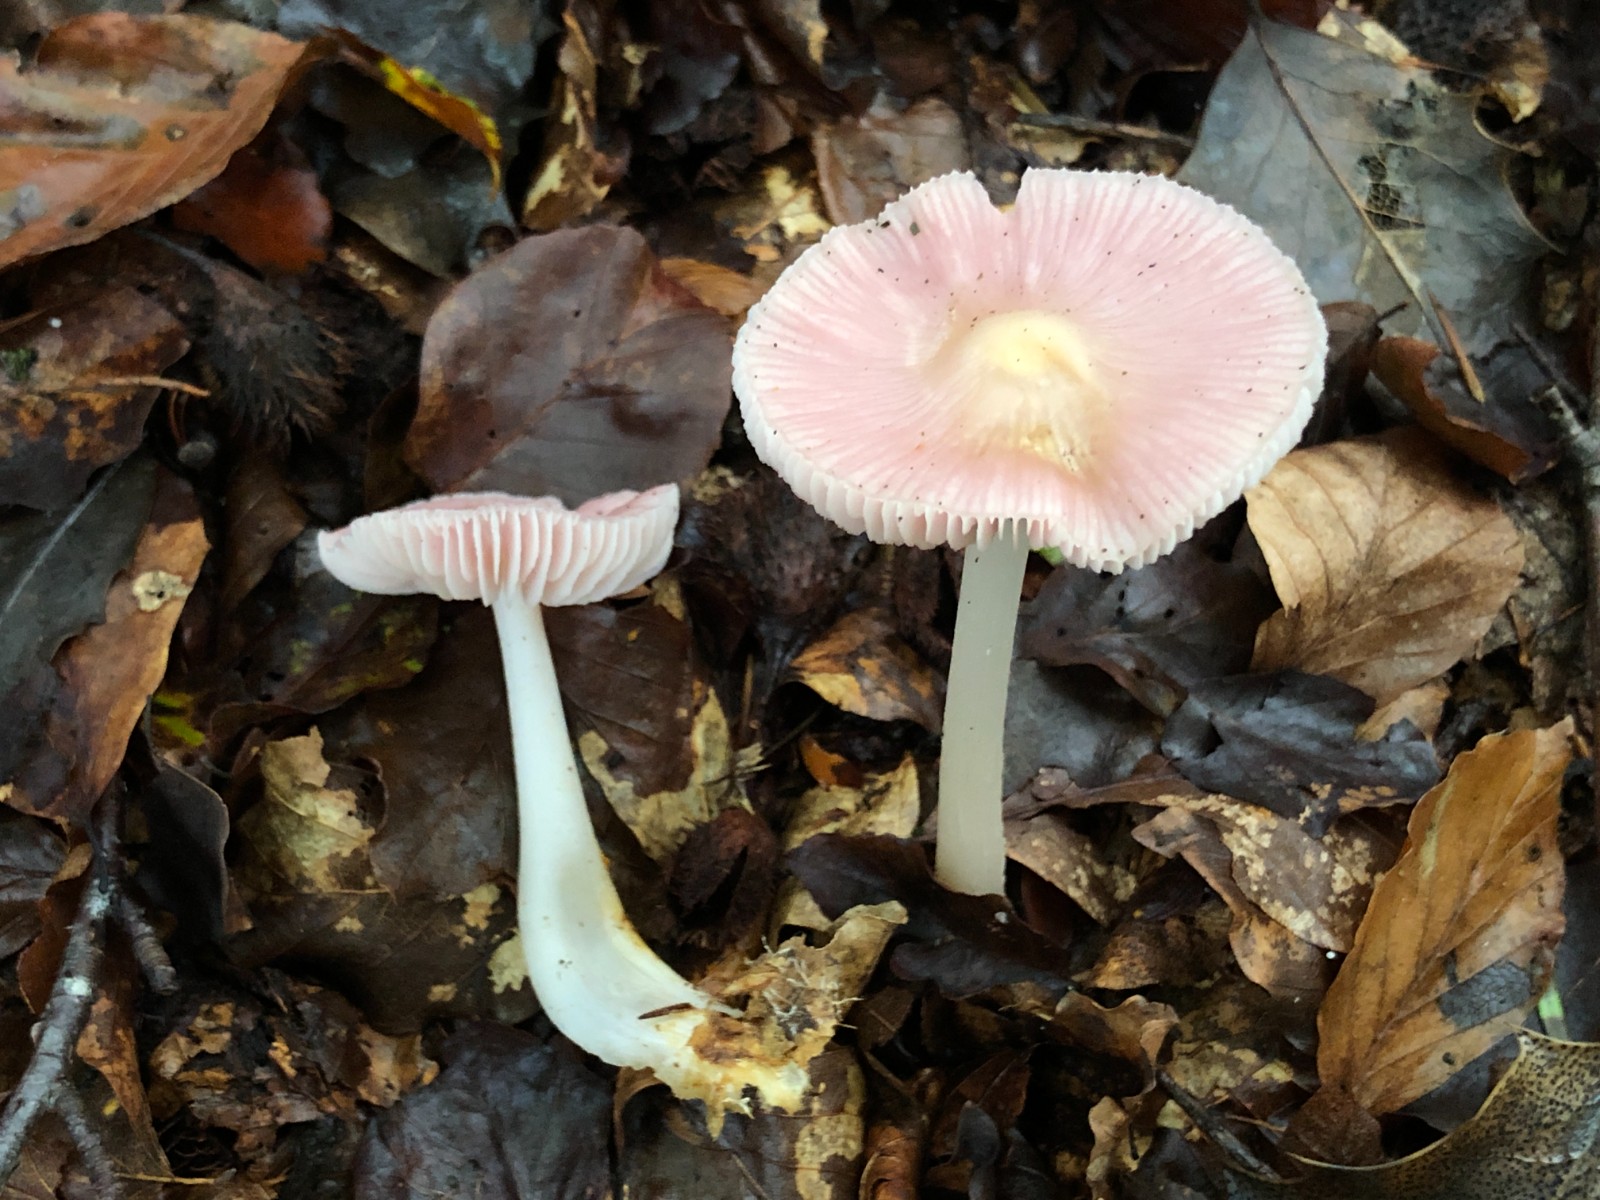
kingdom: Fungi
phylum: Basidiomycota
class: Agaricomycetes
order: Agaricales
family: Mycenaceae
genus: Mycena
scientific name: Mycena rosea
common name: rosa huesvamp
